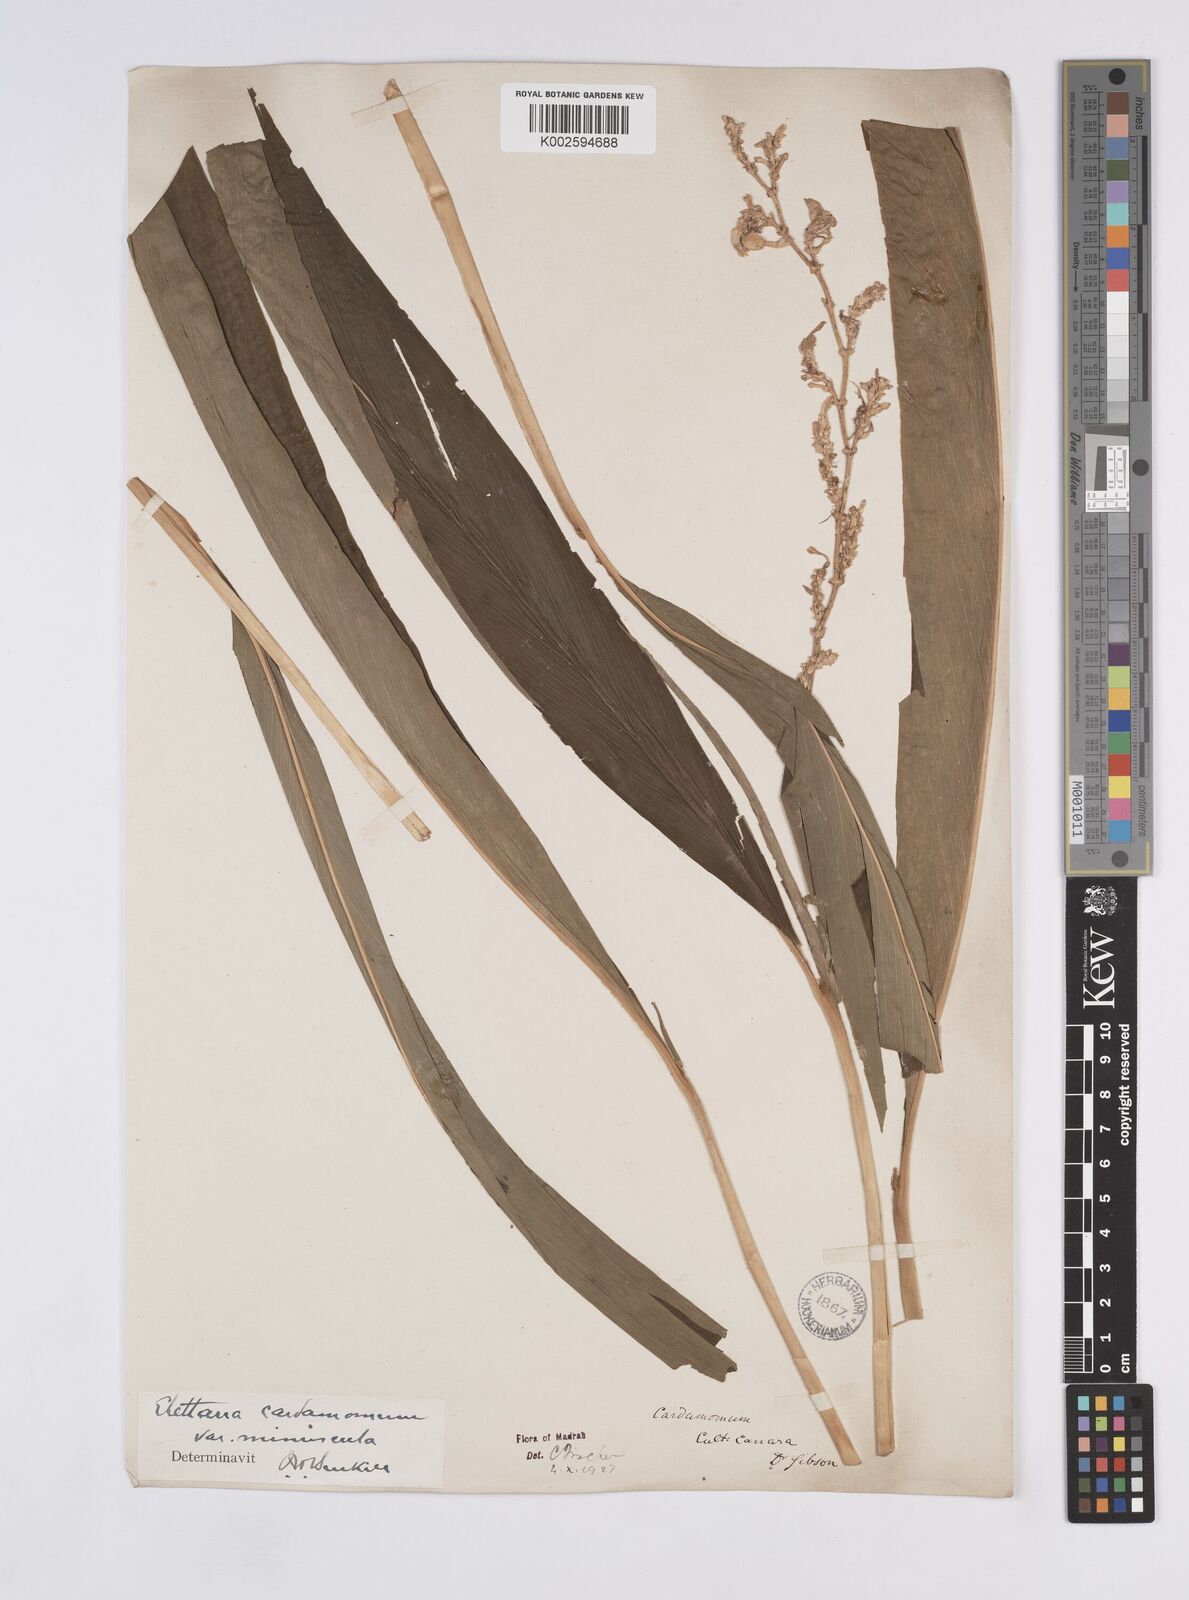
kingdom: Plantae
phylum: Tracheophyta
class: Liliopsida
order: Zingiberales
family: Zingiberaceae
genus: Elettaria
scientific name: Elettaria cardamomum
